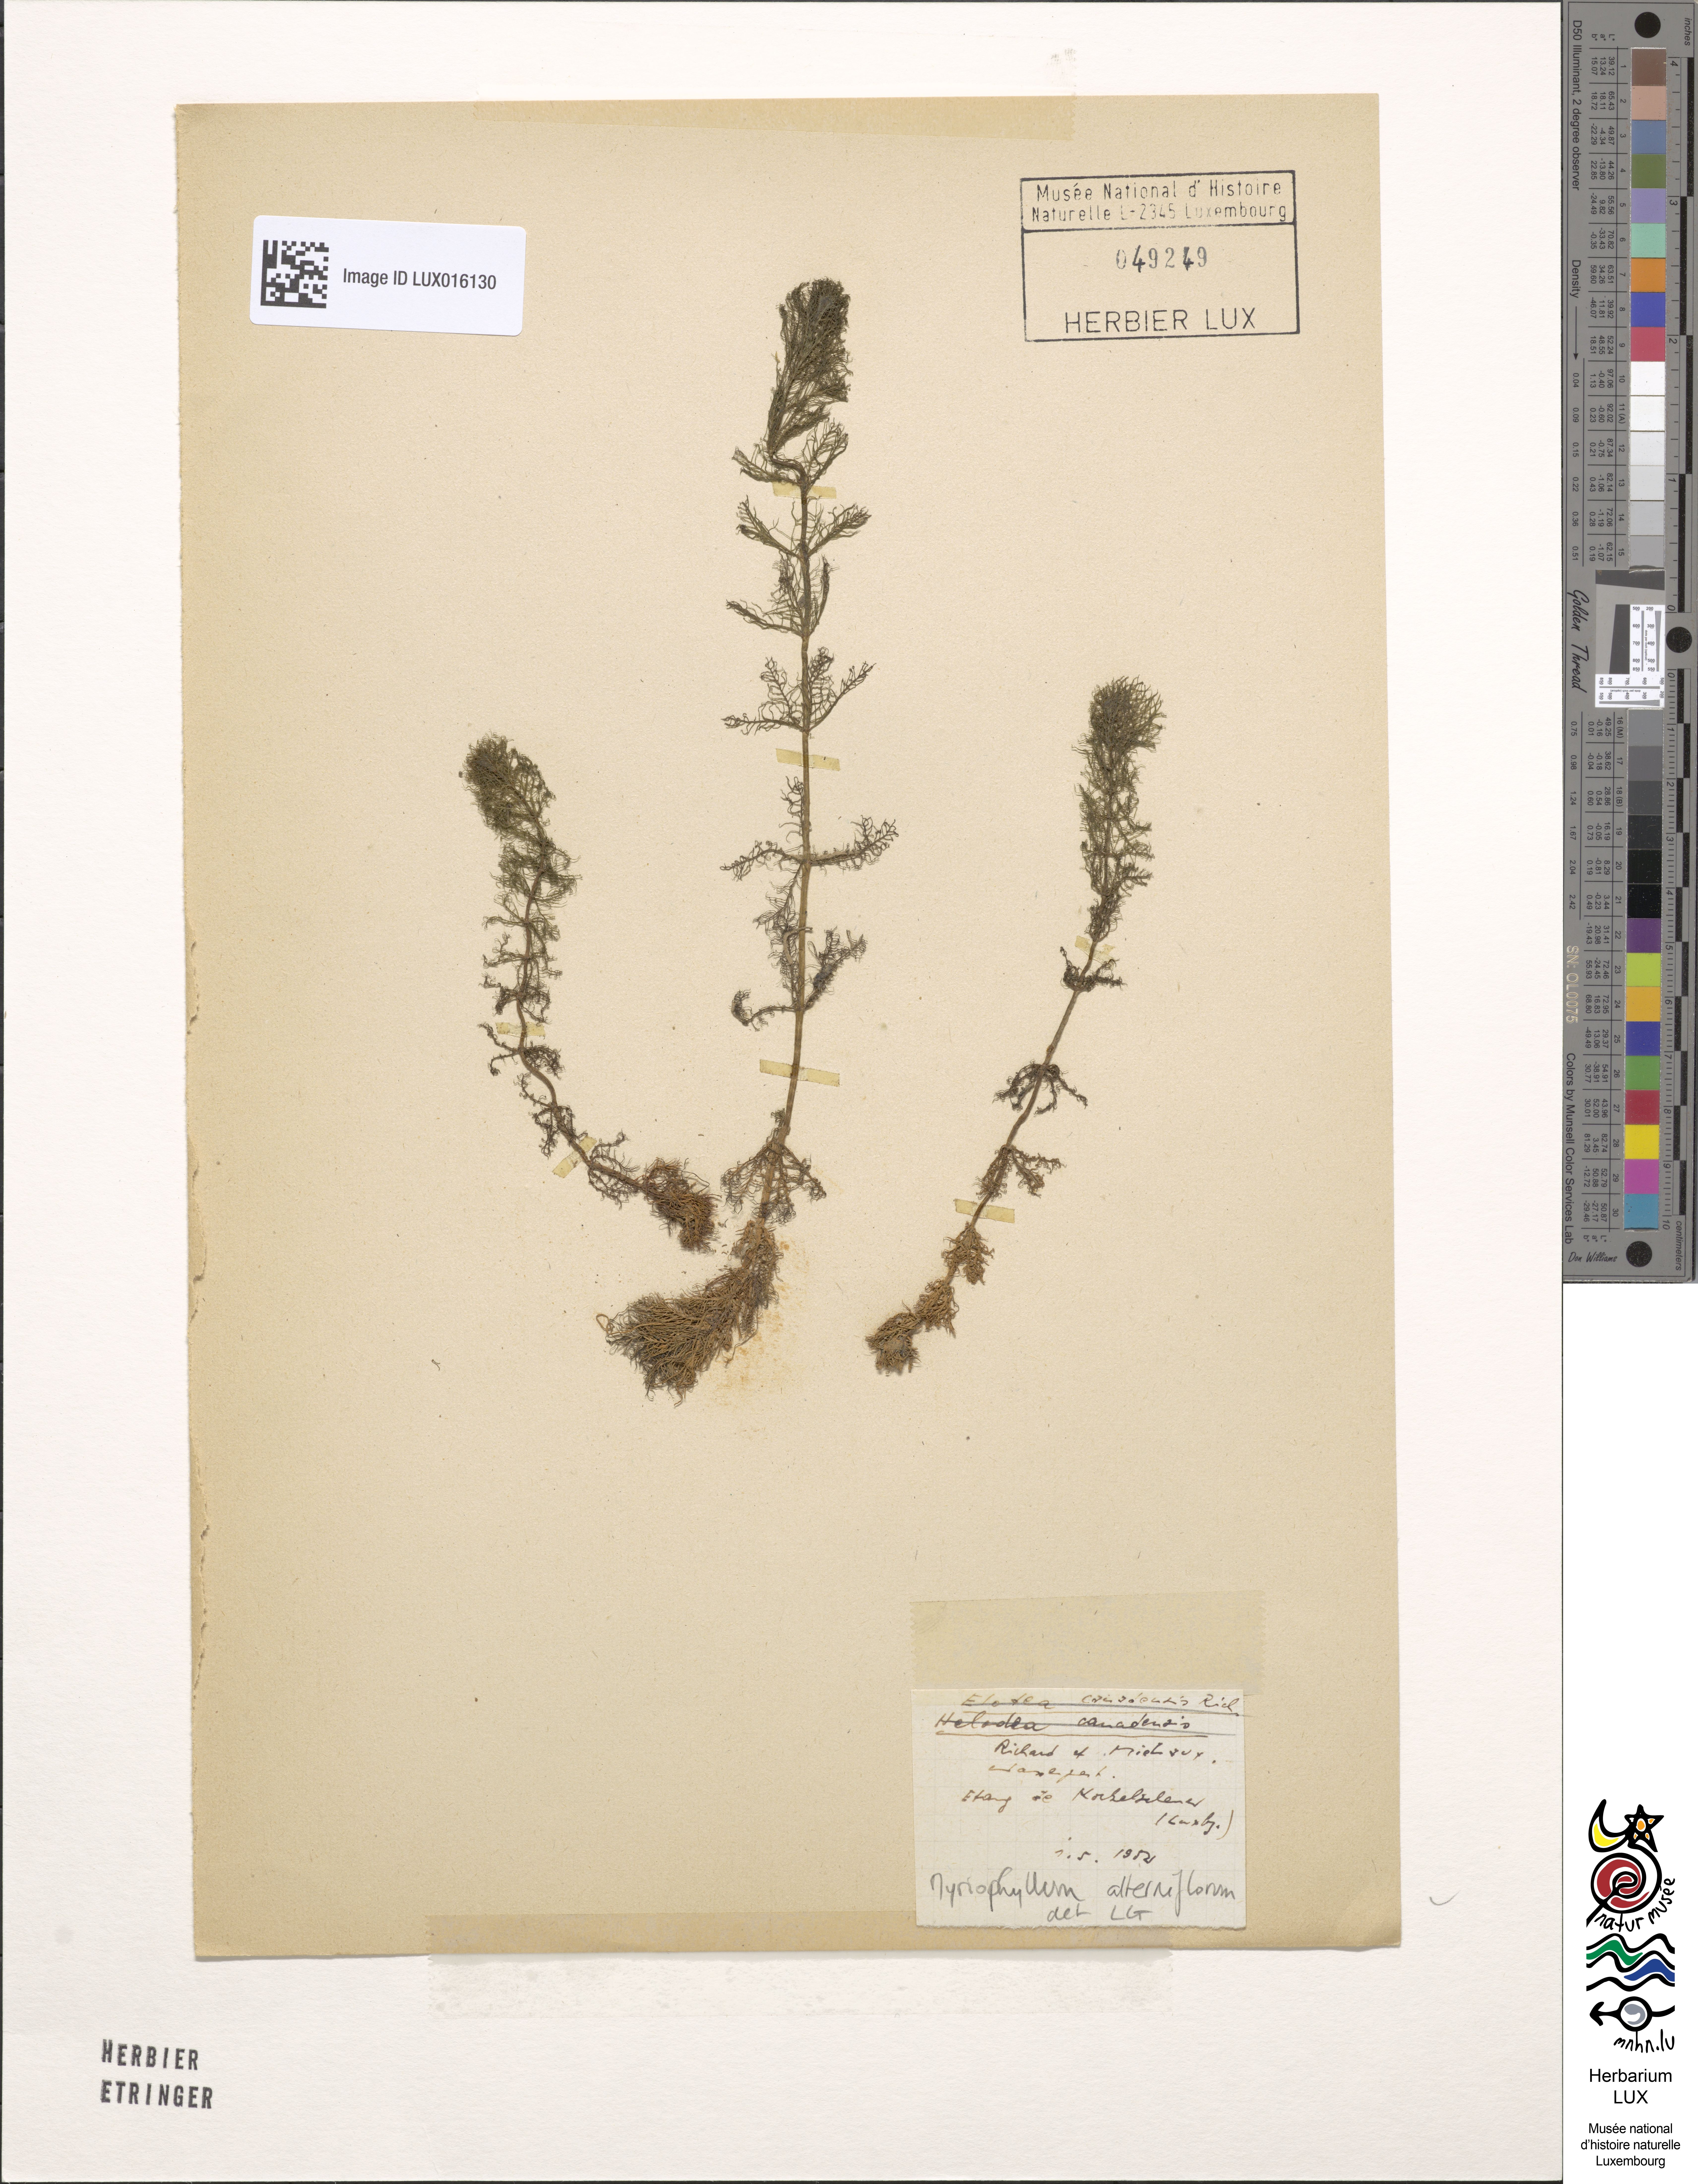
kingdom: Plantae
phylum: Tracheophyta
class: Magnoliopsida
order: Saxifragales
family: Haloragaceae
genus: Myriophyllum
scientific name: Myriophyllum alterniflorum
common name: Alternate water-milfoil
